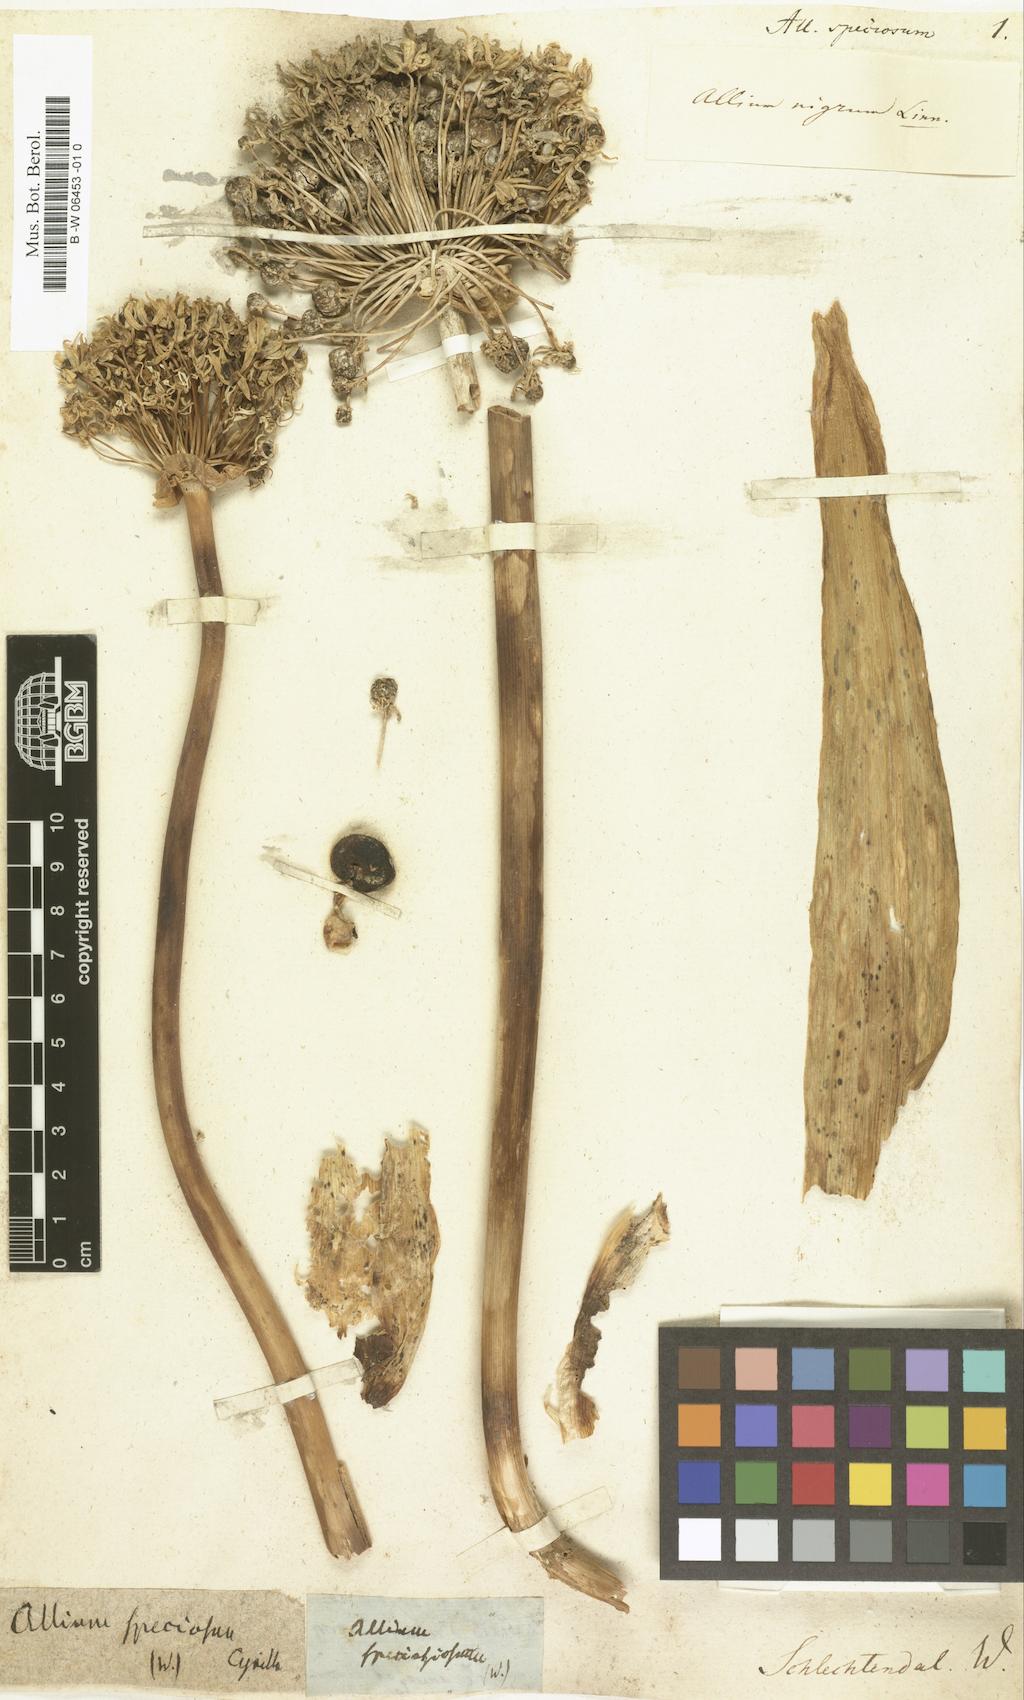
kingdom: Plantae
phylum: Tracheophyta
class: Liliopsida
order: Asparagales
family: Amaryllidaceae
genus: Allium
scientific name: Allium multibulbosum
